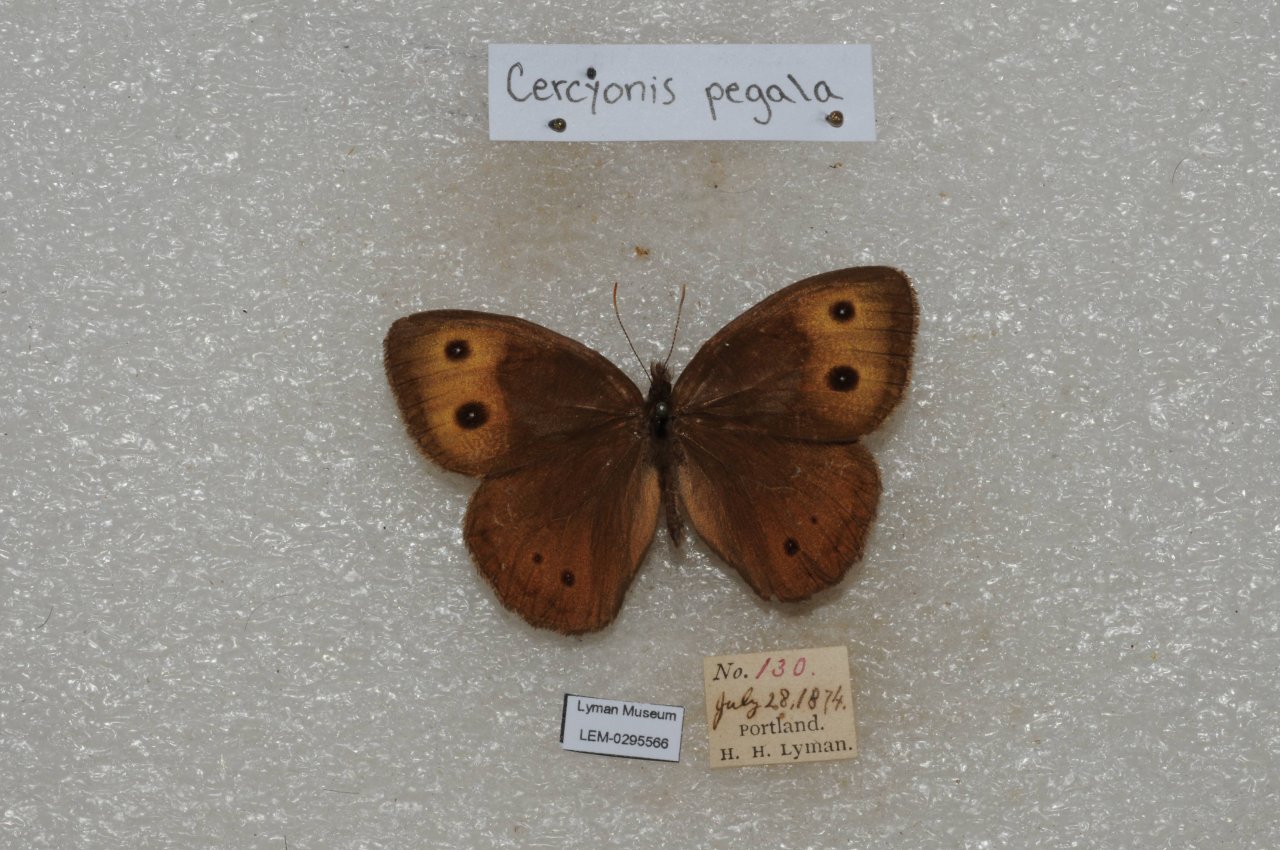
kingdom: Animalia
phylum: Arthropoda
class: Insecta
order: Lepidoptera
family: Nymphalidae
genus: Cercyonis
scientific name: Cercyonis pegala
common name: Common Wood-Nymph
